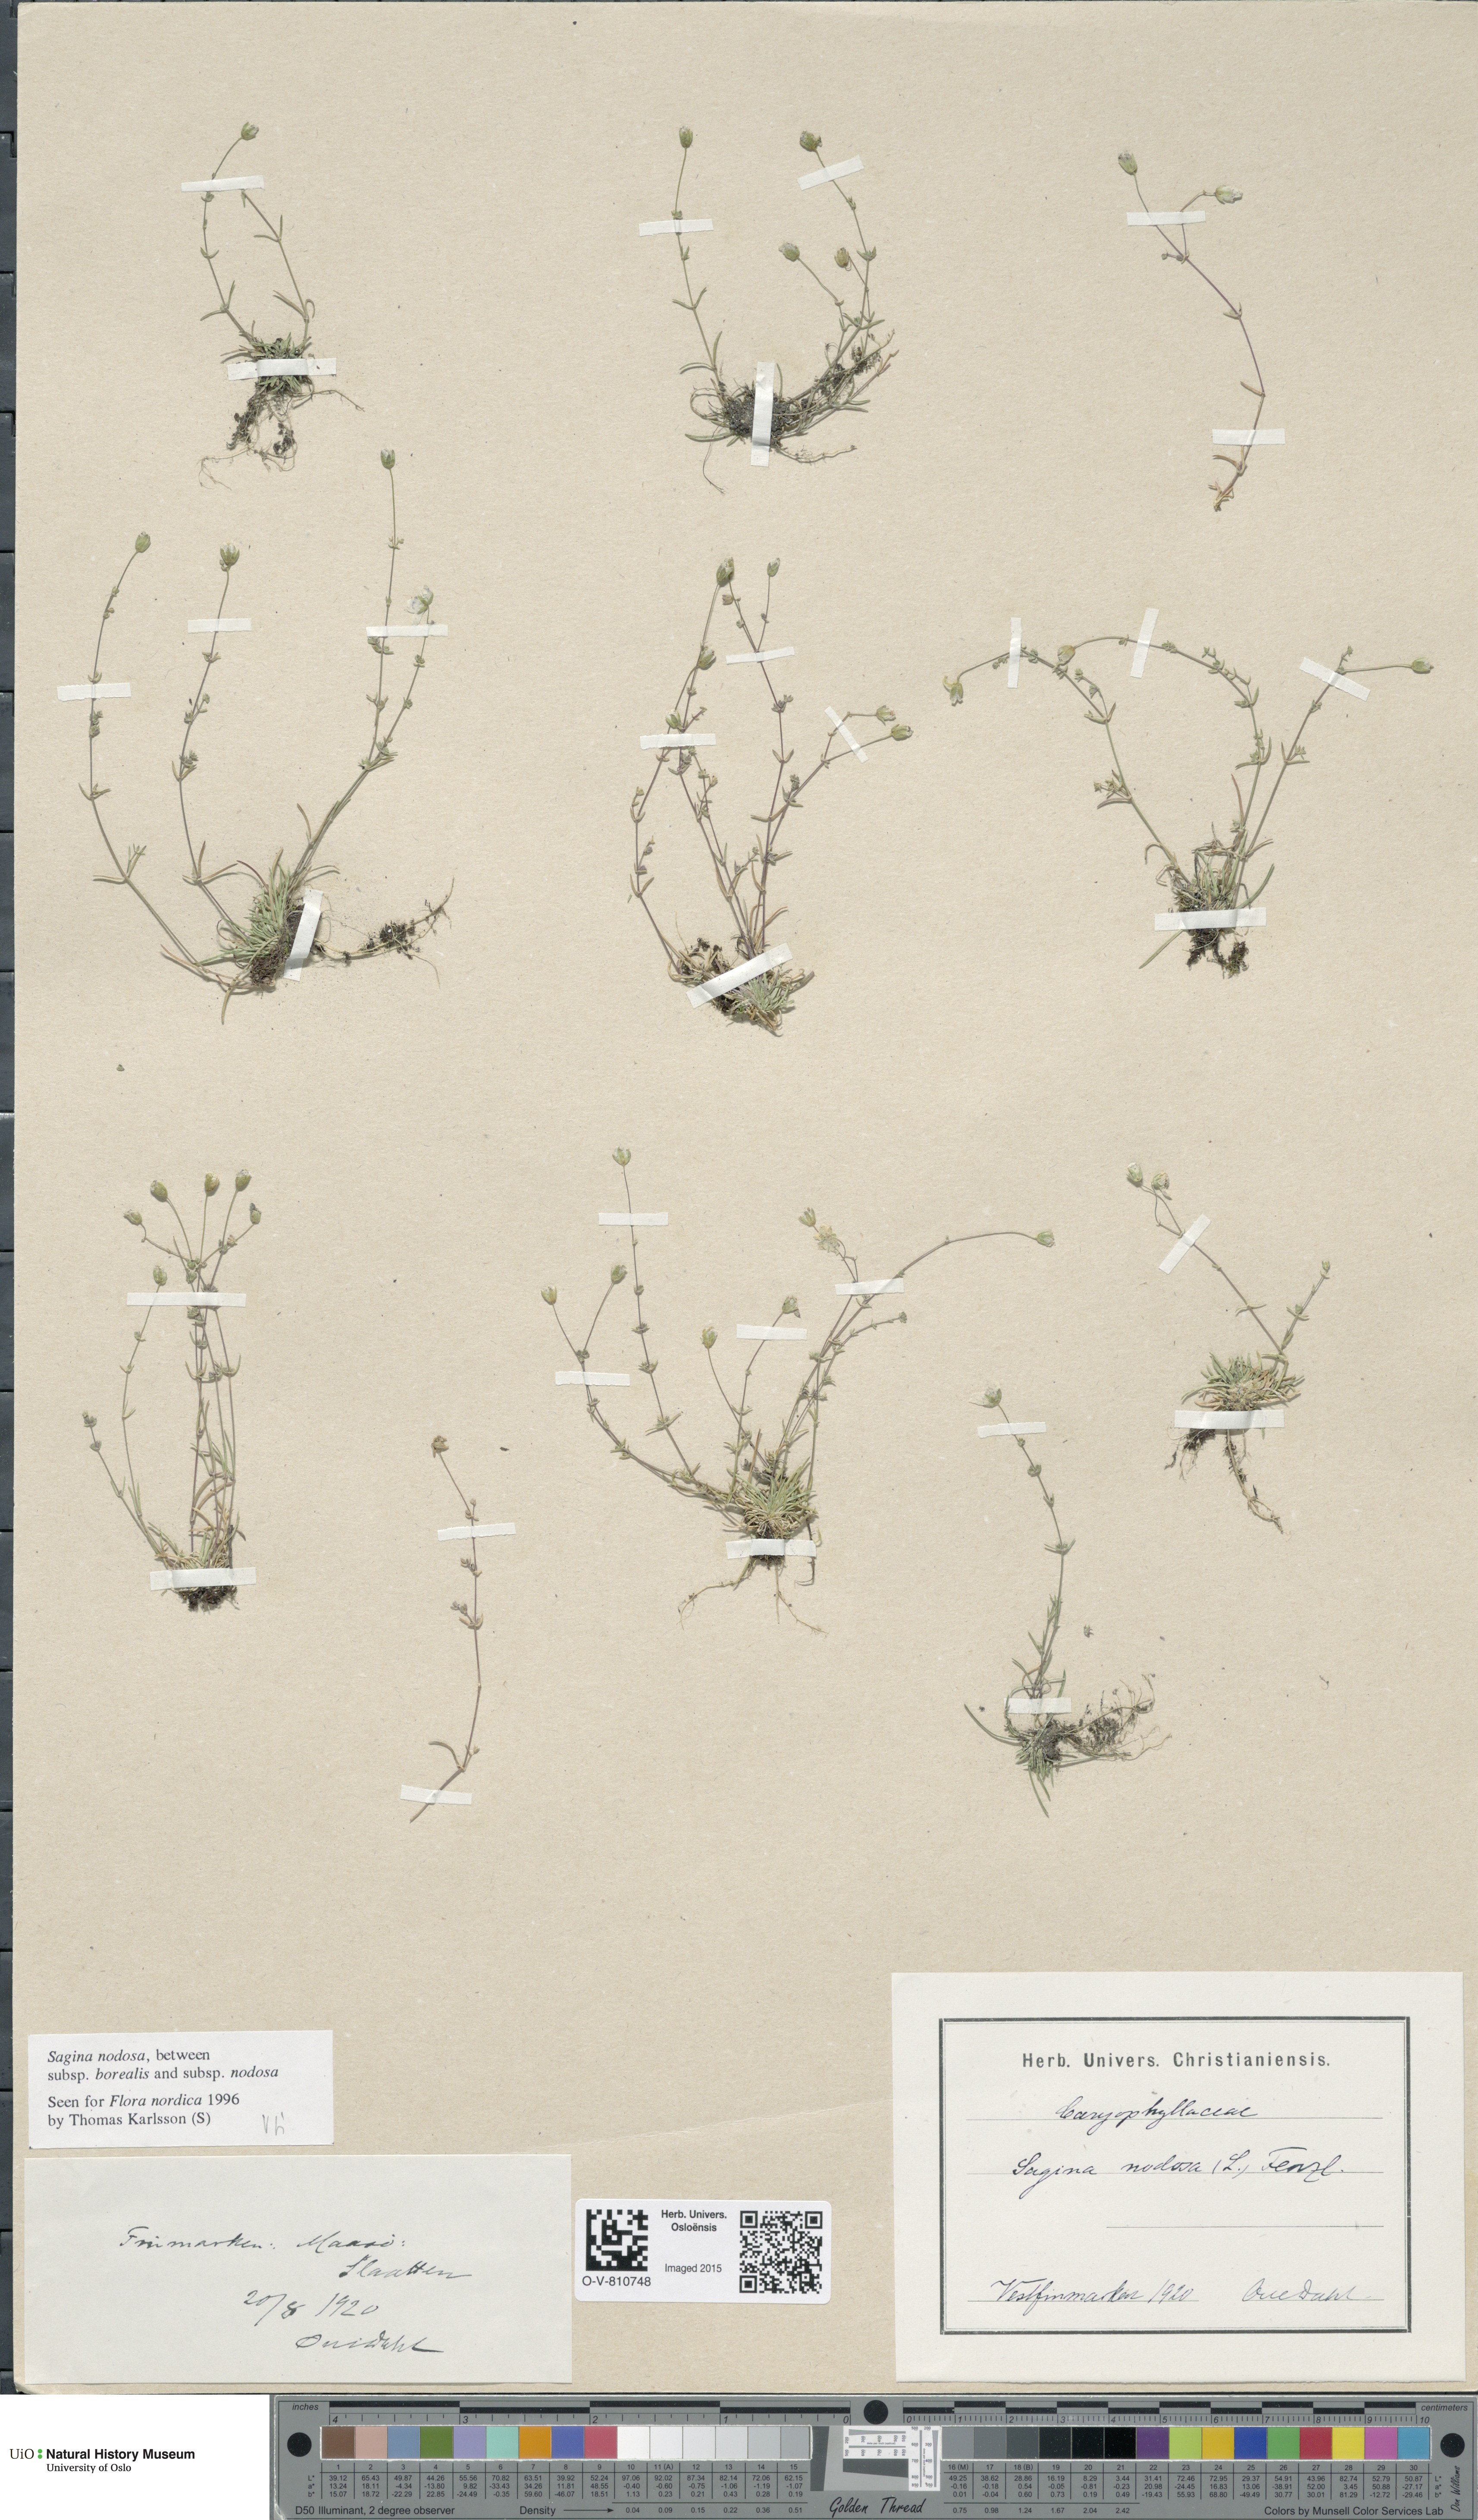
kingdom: Plantae
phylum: Tracheophyta
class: Magnoliopsida
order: Caryophyllales
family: Caryophyllaceae
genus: Sagina
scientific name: Sagina
